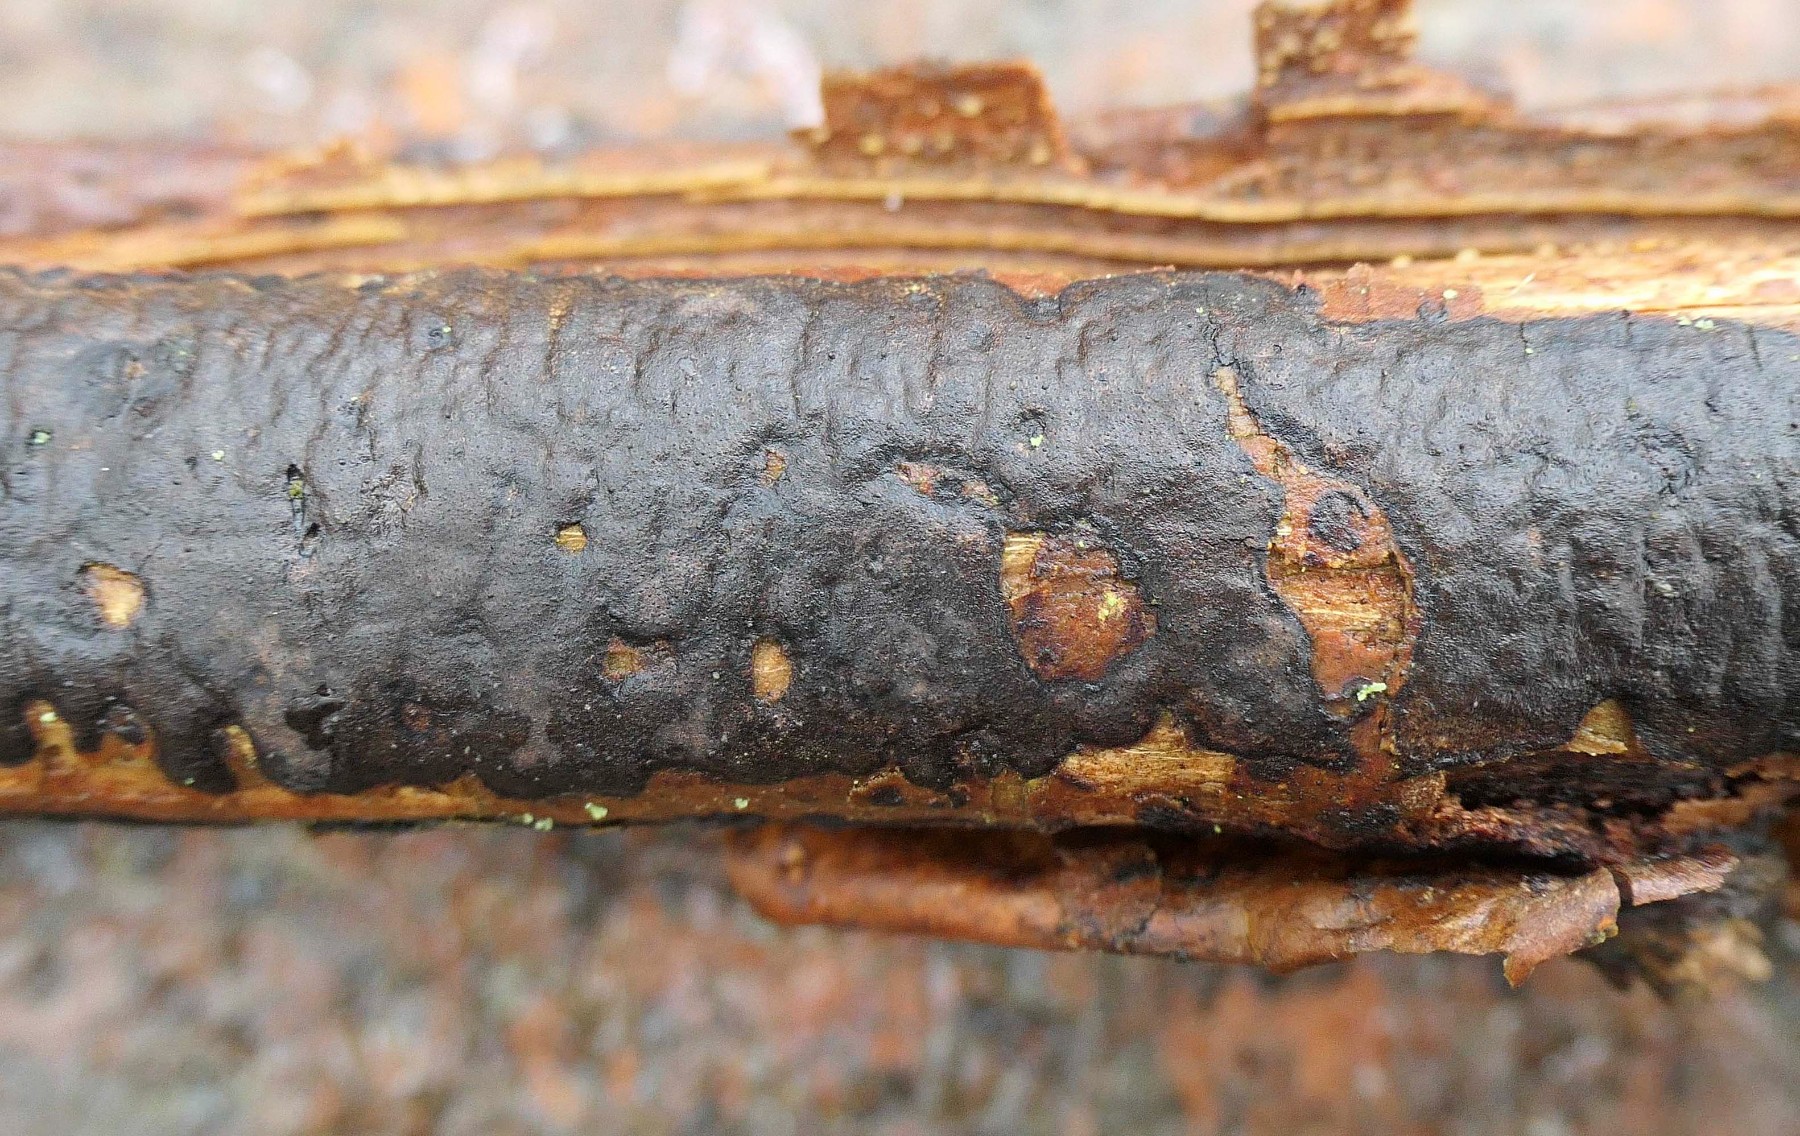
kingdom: Fungi
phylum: Ascomycota
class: Sordariomycetes
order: Xylariales
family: Diatrypaceae
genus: Diatrype
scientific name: Diatrype decorticata
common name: barksprænger-kulskorpe
